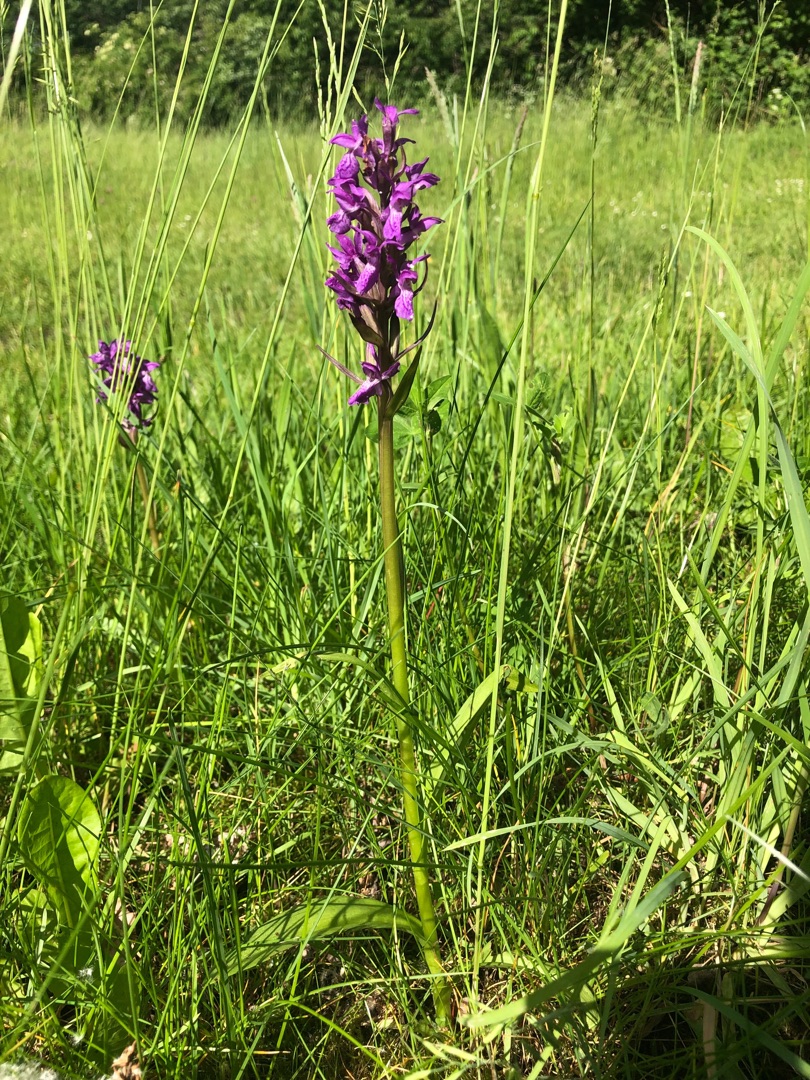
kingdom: Plantae
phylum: Tracheophyta
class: Liliopsida
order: Asparagales
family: Orchidaceae
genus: Dactylorhiza
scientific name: Dactylorhiza majalis
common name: Maj-gøgeurt
